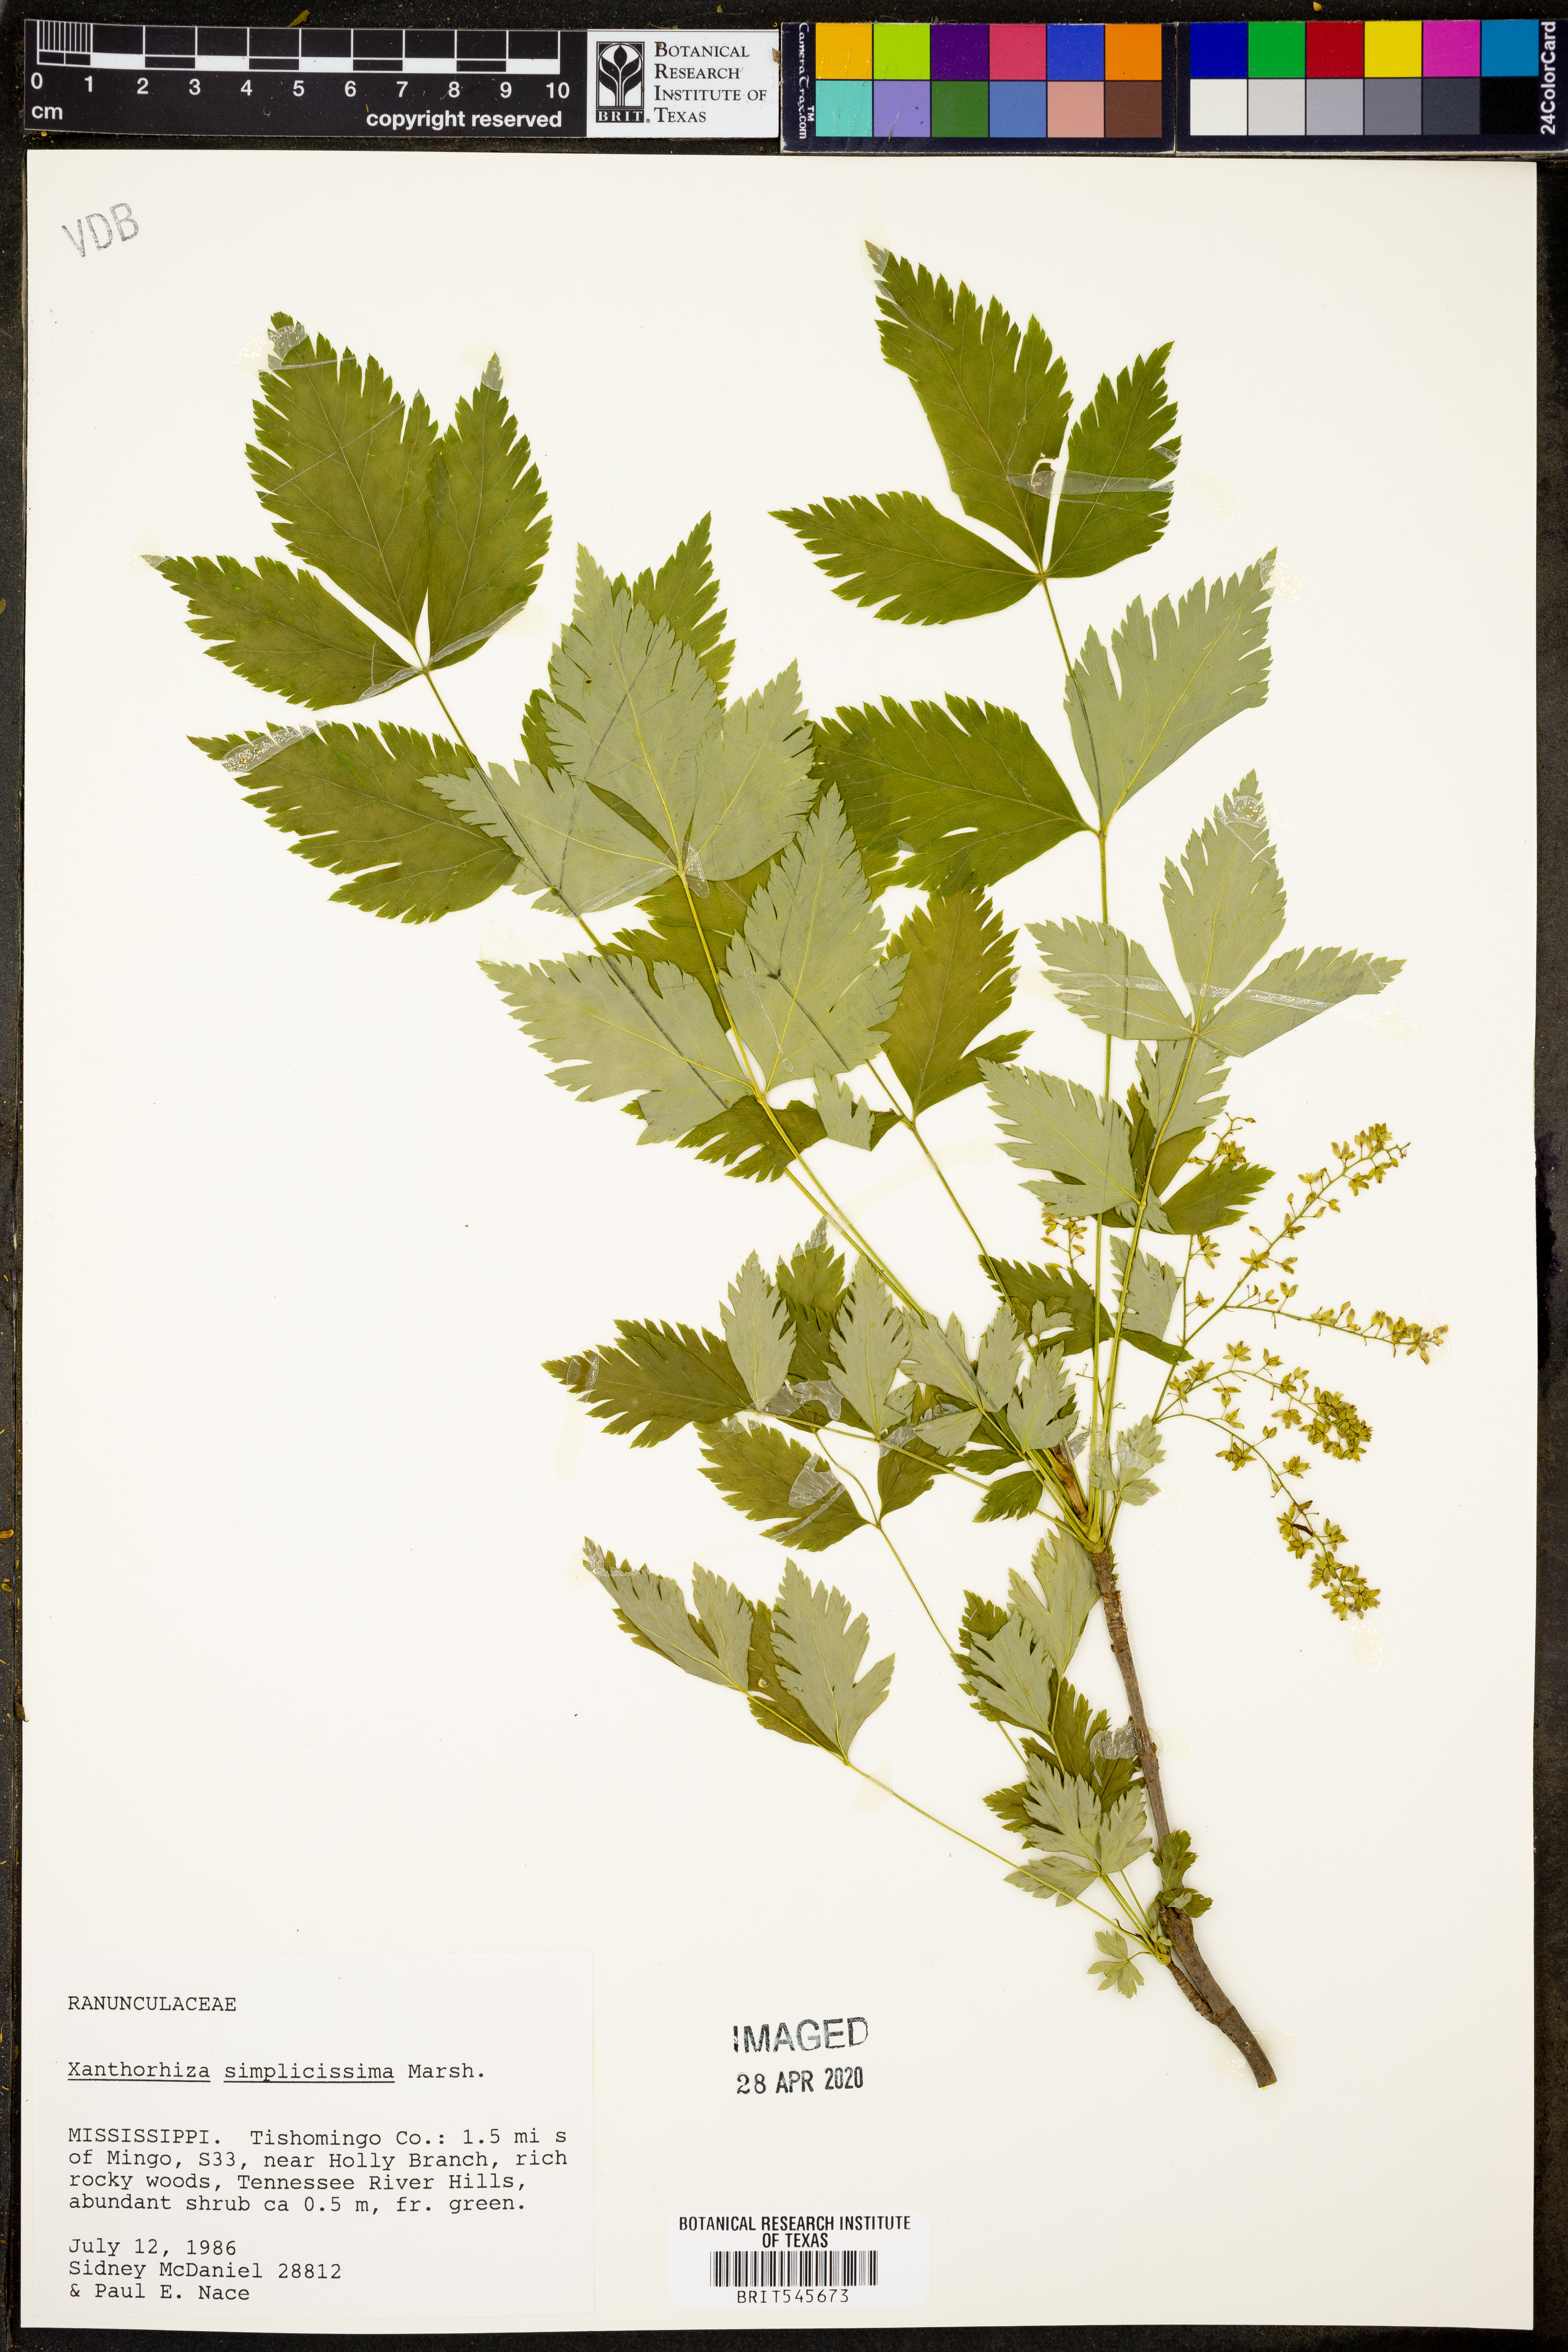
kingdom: Plantae
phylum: Tracheophyta
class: Magnoliopsida
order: Ranunculales
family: Ranunculaceae
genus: Xanthorhiza
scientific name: Xanthorhiza simplicissima
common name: Yellowroot
